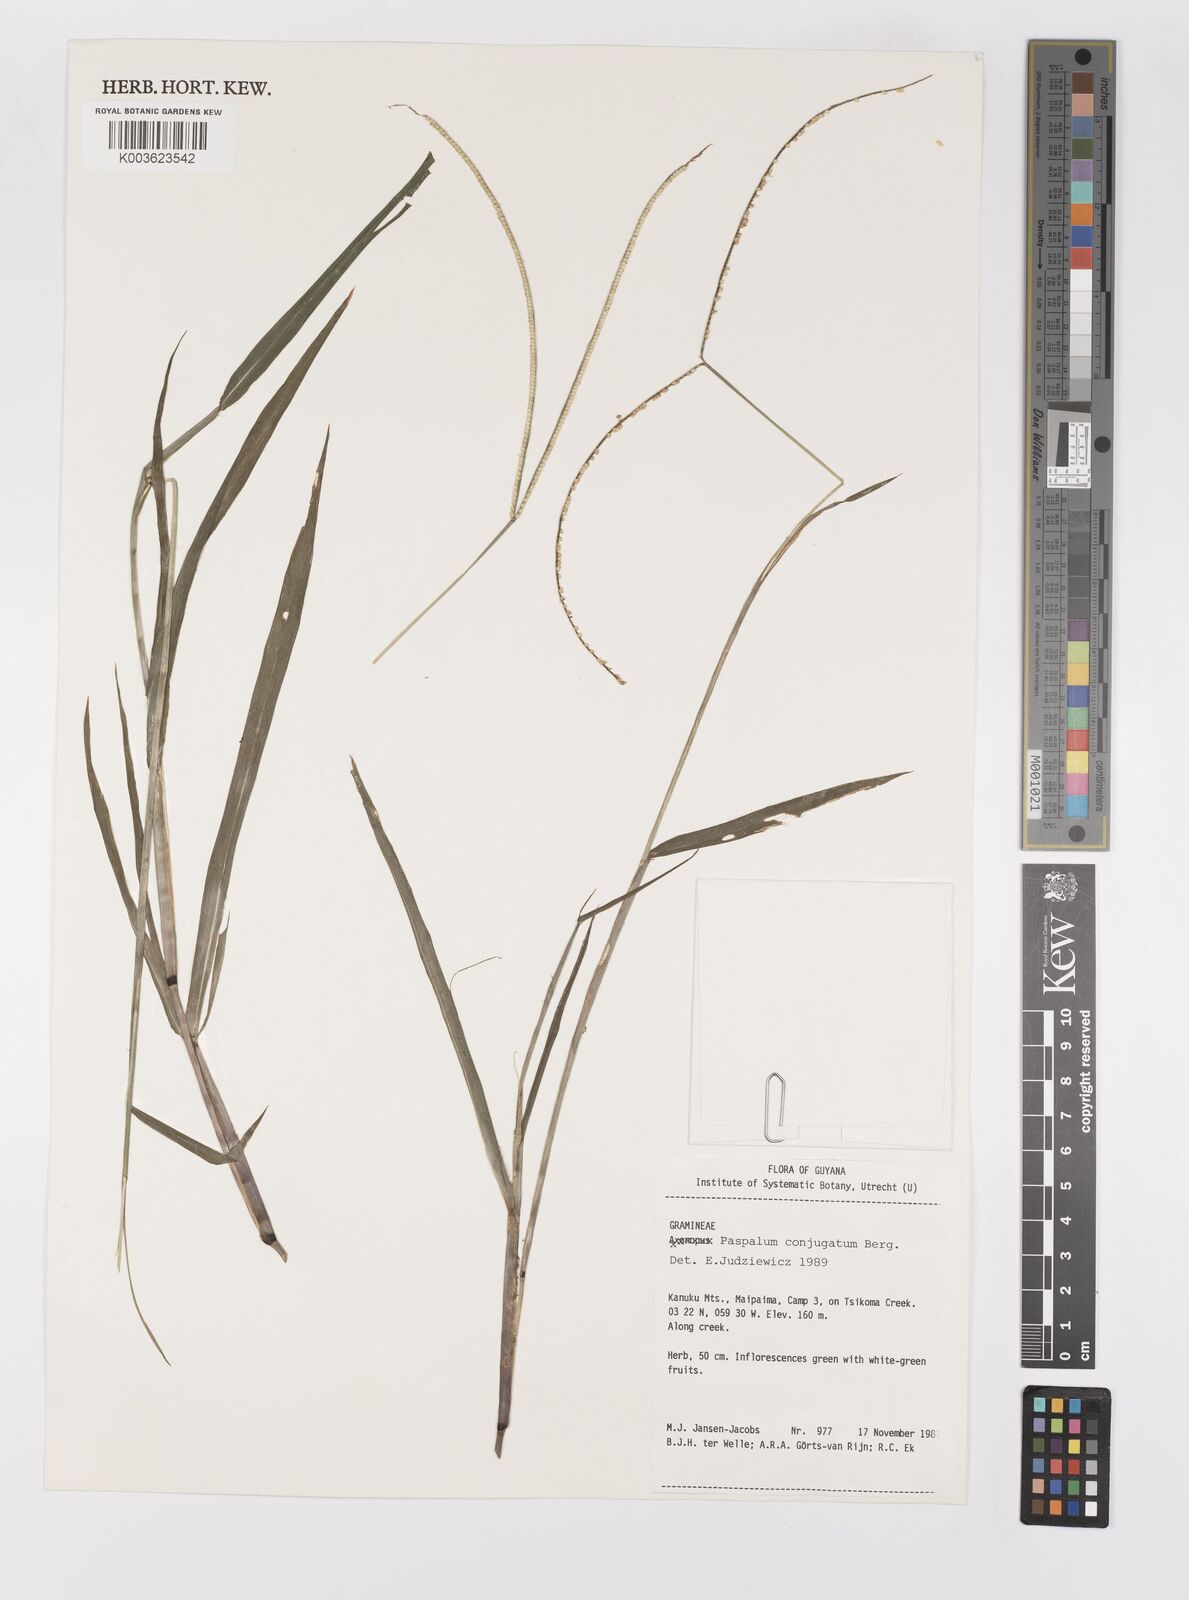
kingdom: Plantae
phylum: Tracheophyta
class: Liliopsida
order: Poales
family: Poaceae
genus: Paspalum
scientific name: Paspalum conjugatum
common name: Hilograss
